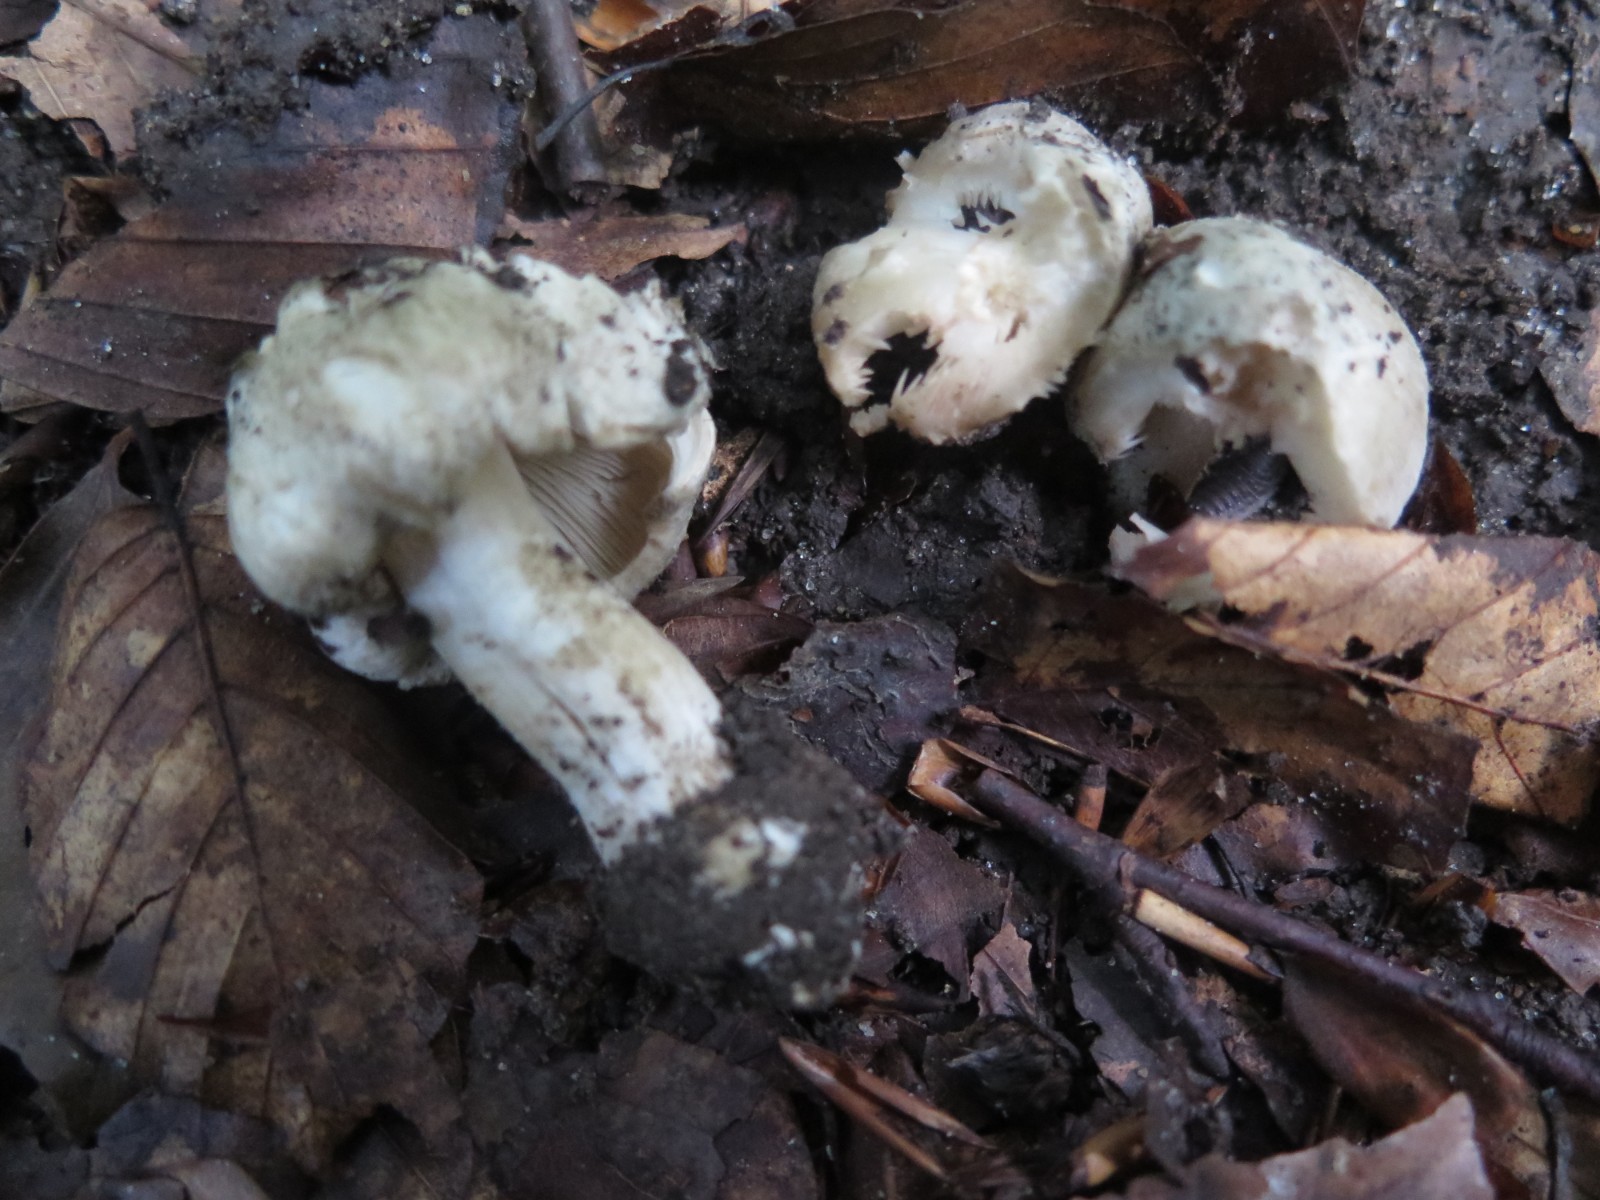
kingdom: Fungi
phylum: Basidiomycota
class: Agaricomycetes
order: Agaricales
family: Inocybaceae
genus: Inocybe
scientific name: Inocybe
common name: almindelig trævlhat
